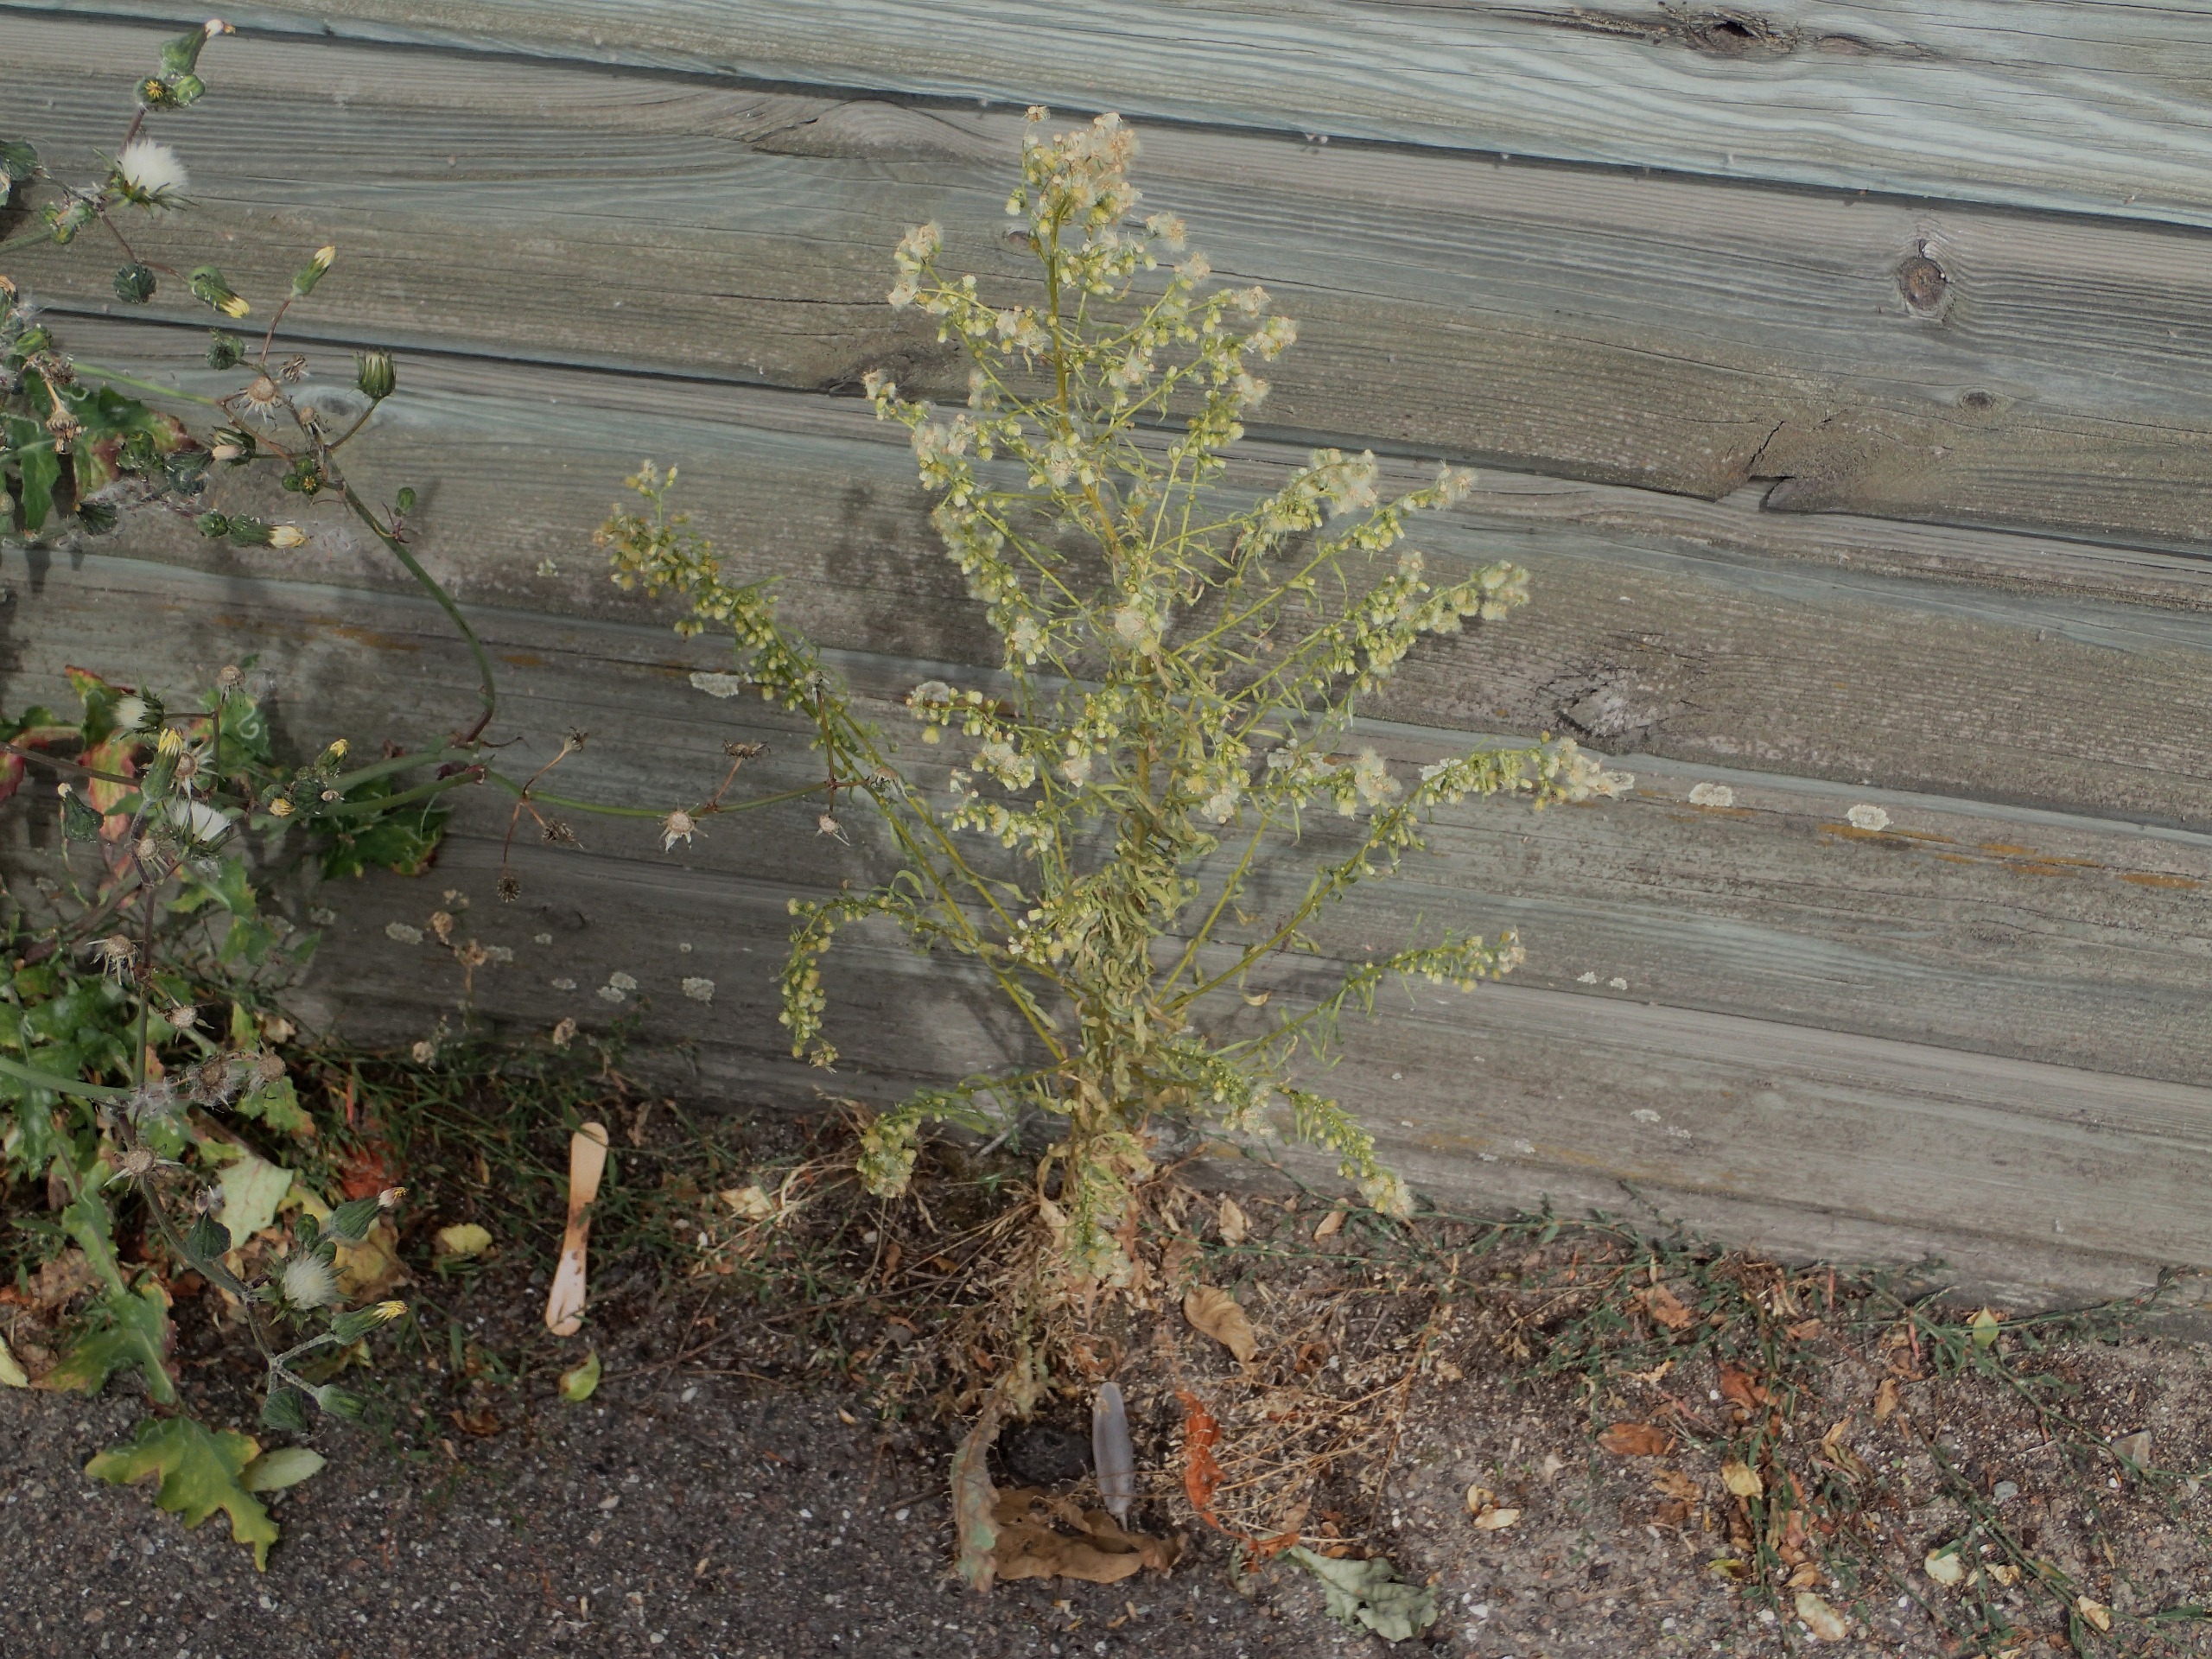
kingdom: Plantae
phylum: Tracheophyta
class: Magnoliopsida
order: Asterales
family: Asteraceae
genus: Erigeron
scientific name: Erigeron canadensis
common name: Kanadisk bakkestjerne
